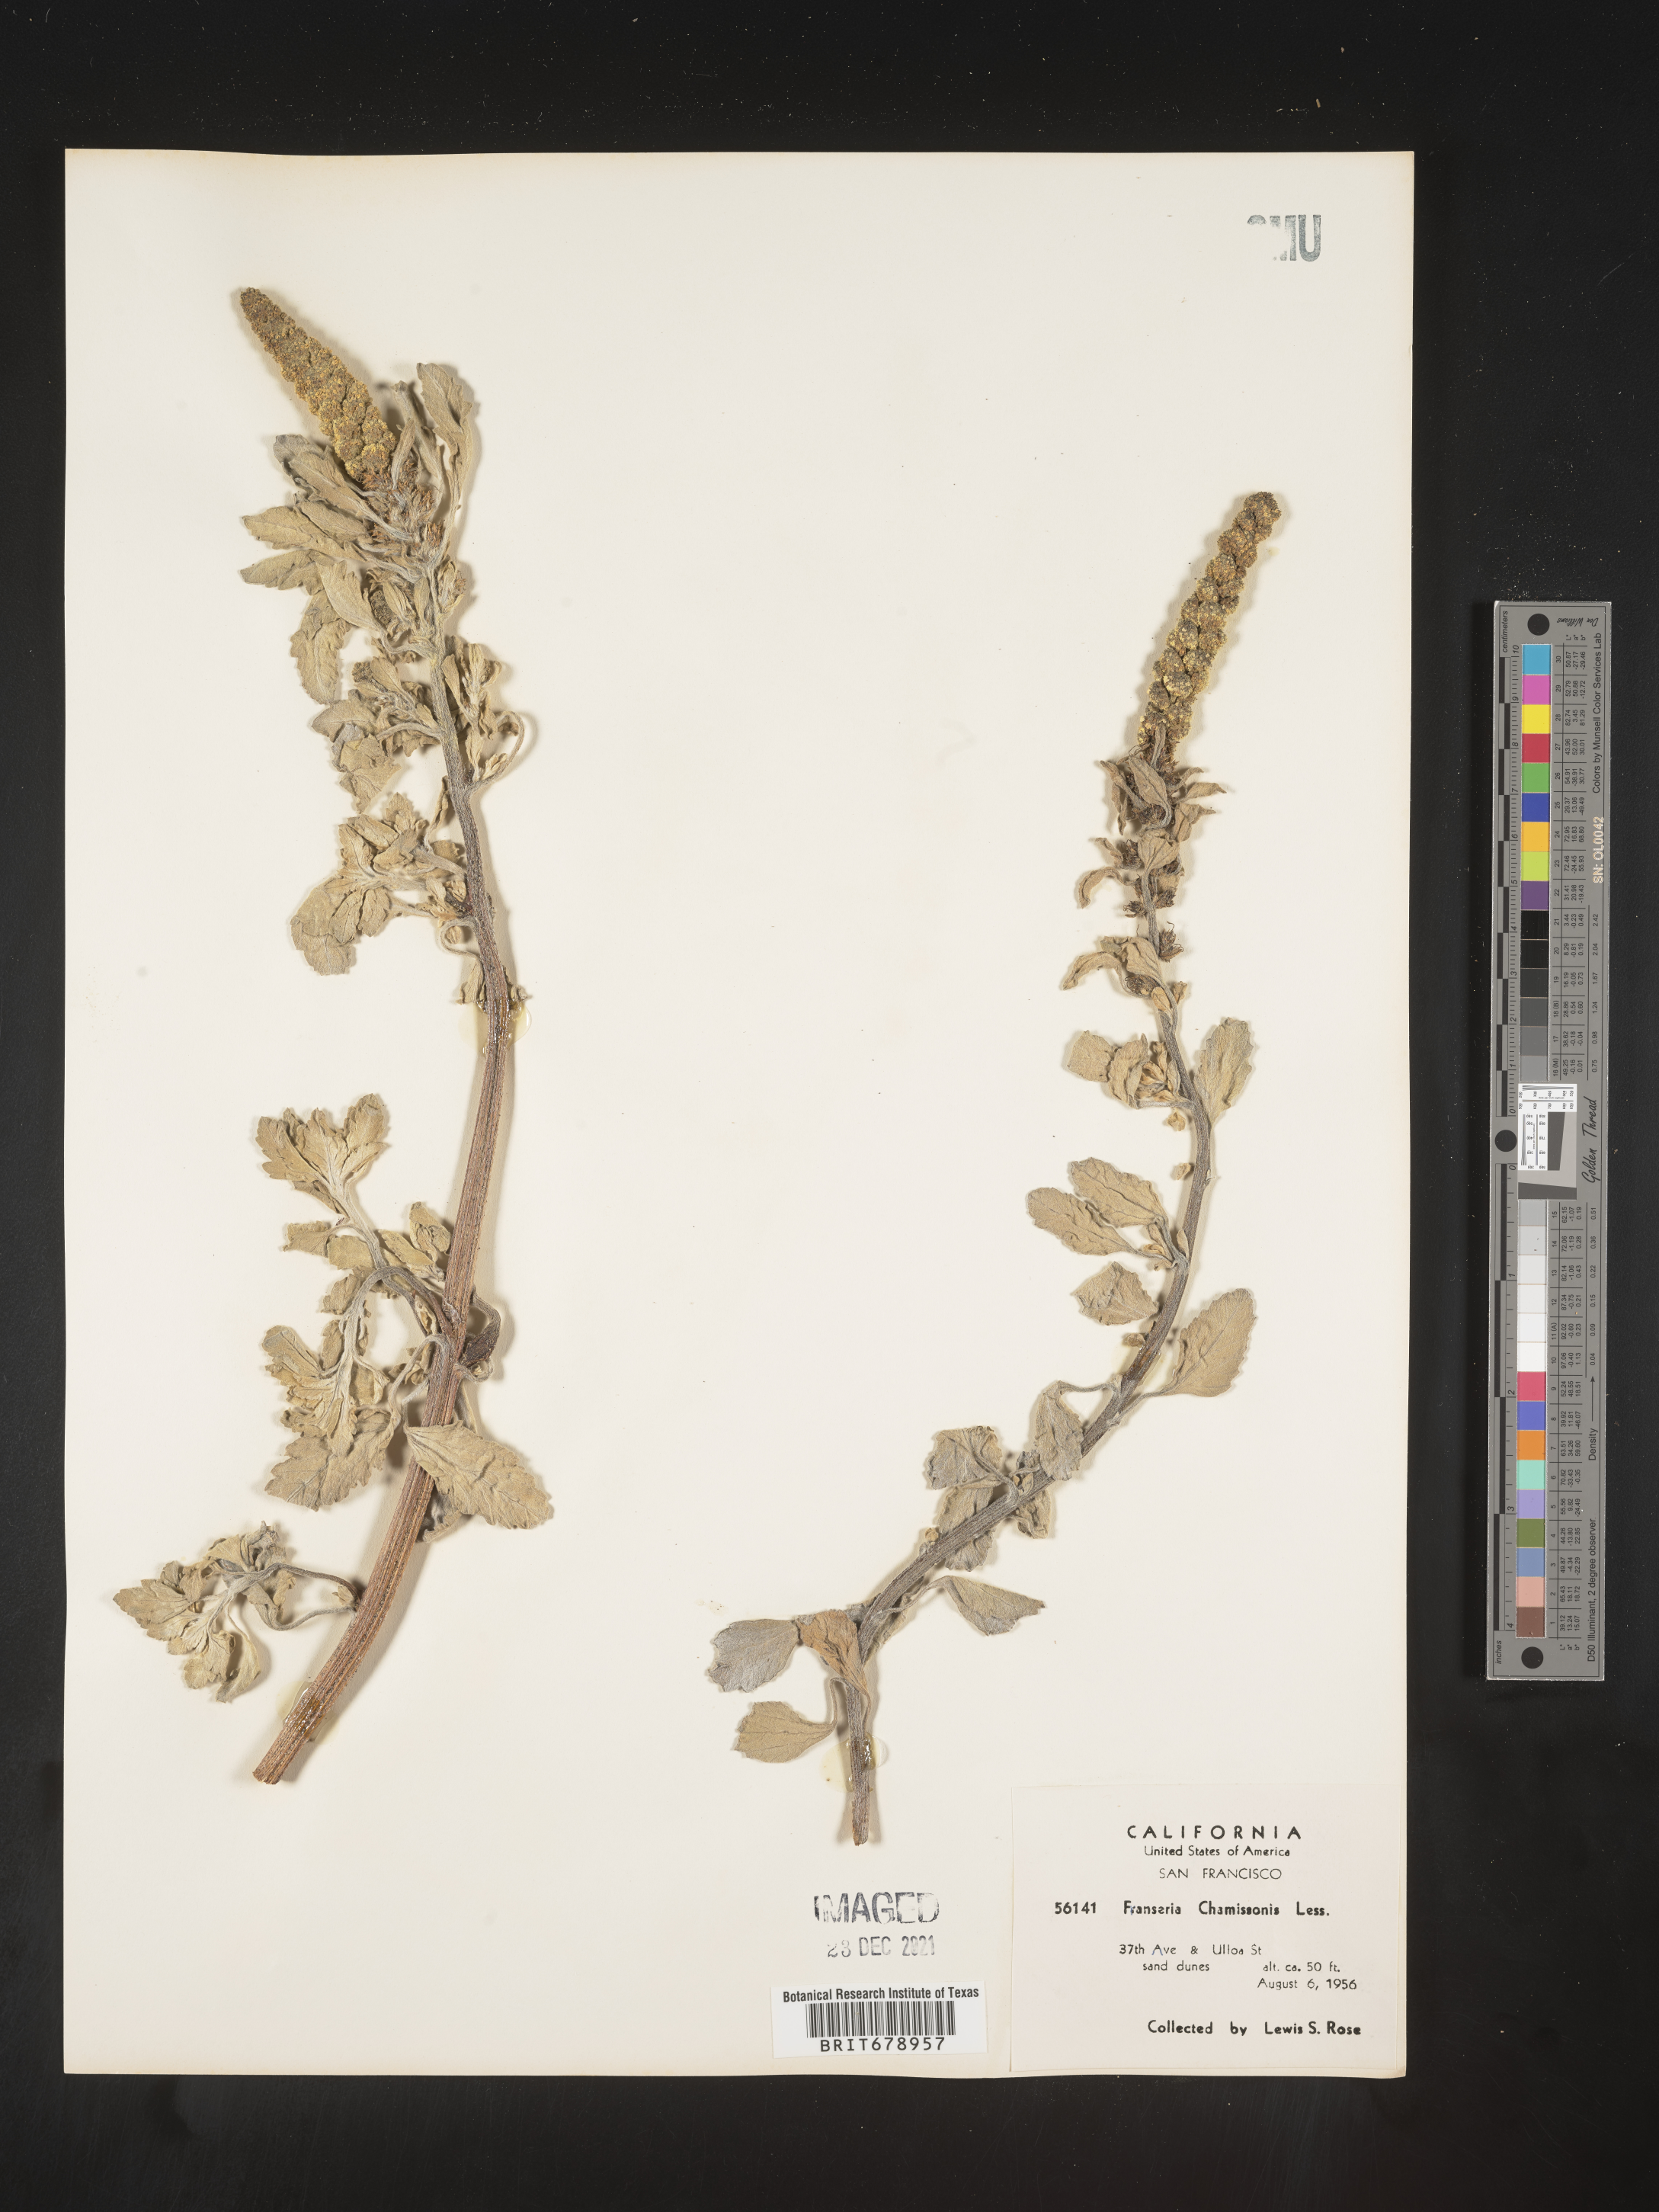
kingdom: Plantae
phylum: Tracheophyta
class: Magnoliopsida
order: Asterales
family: Asteraceae
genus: Ambrosia
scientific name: Ambrosia chamissonis
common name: Beachbur
